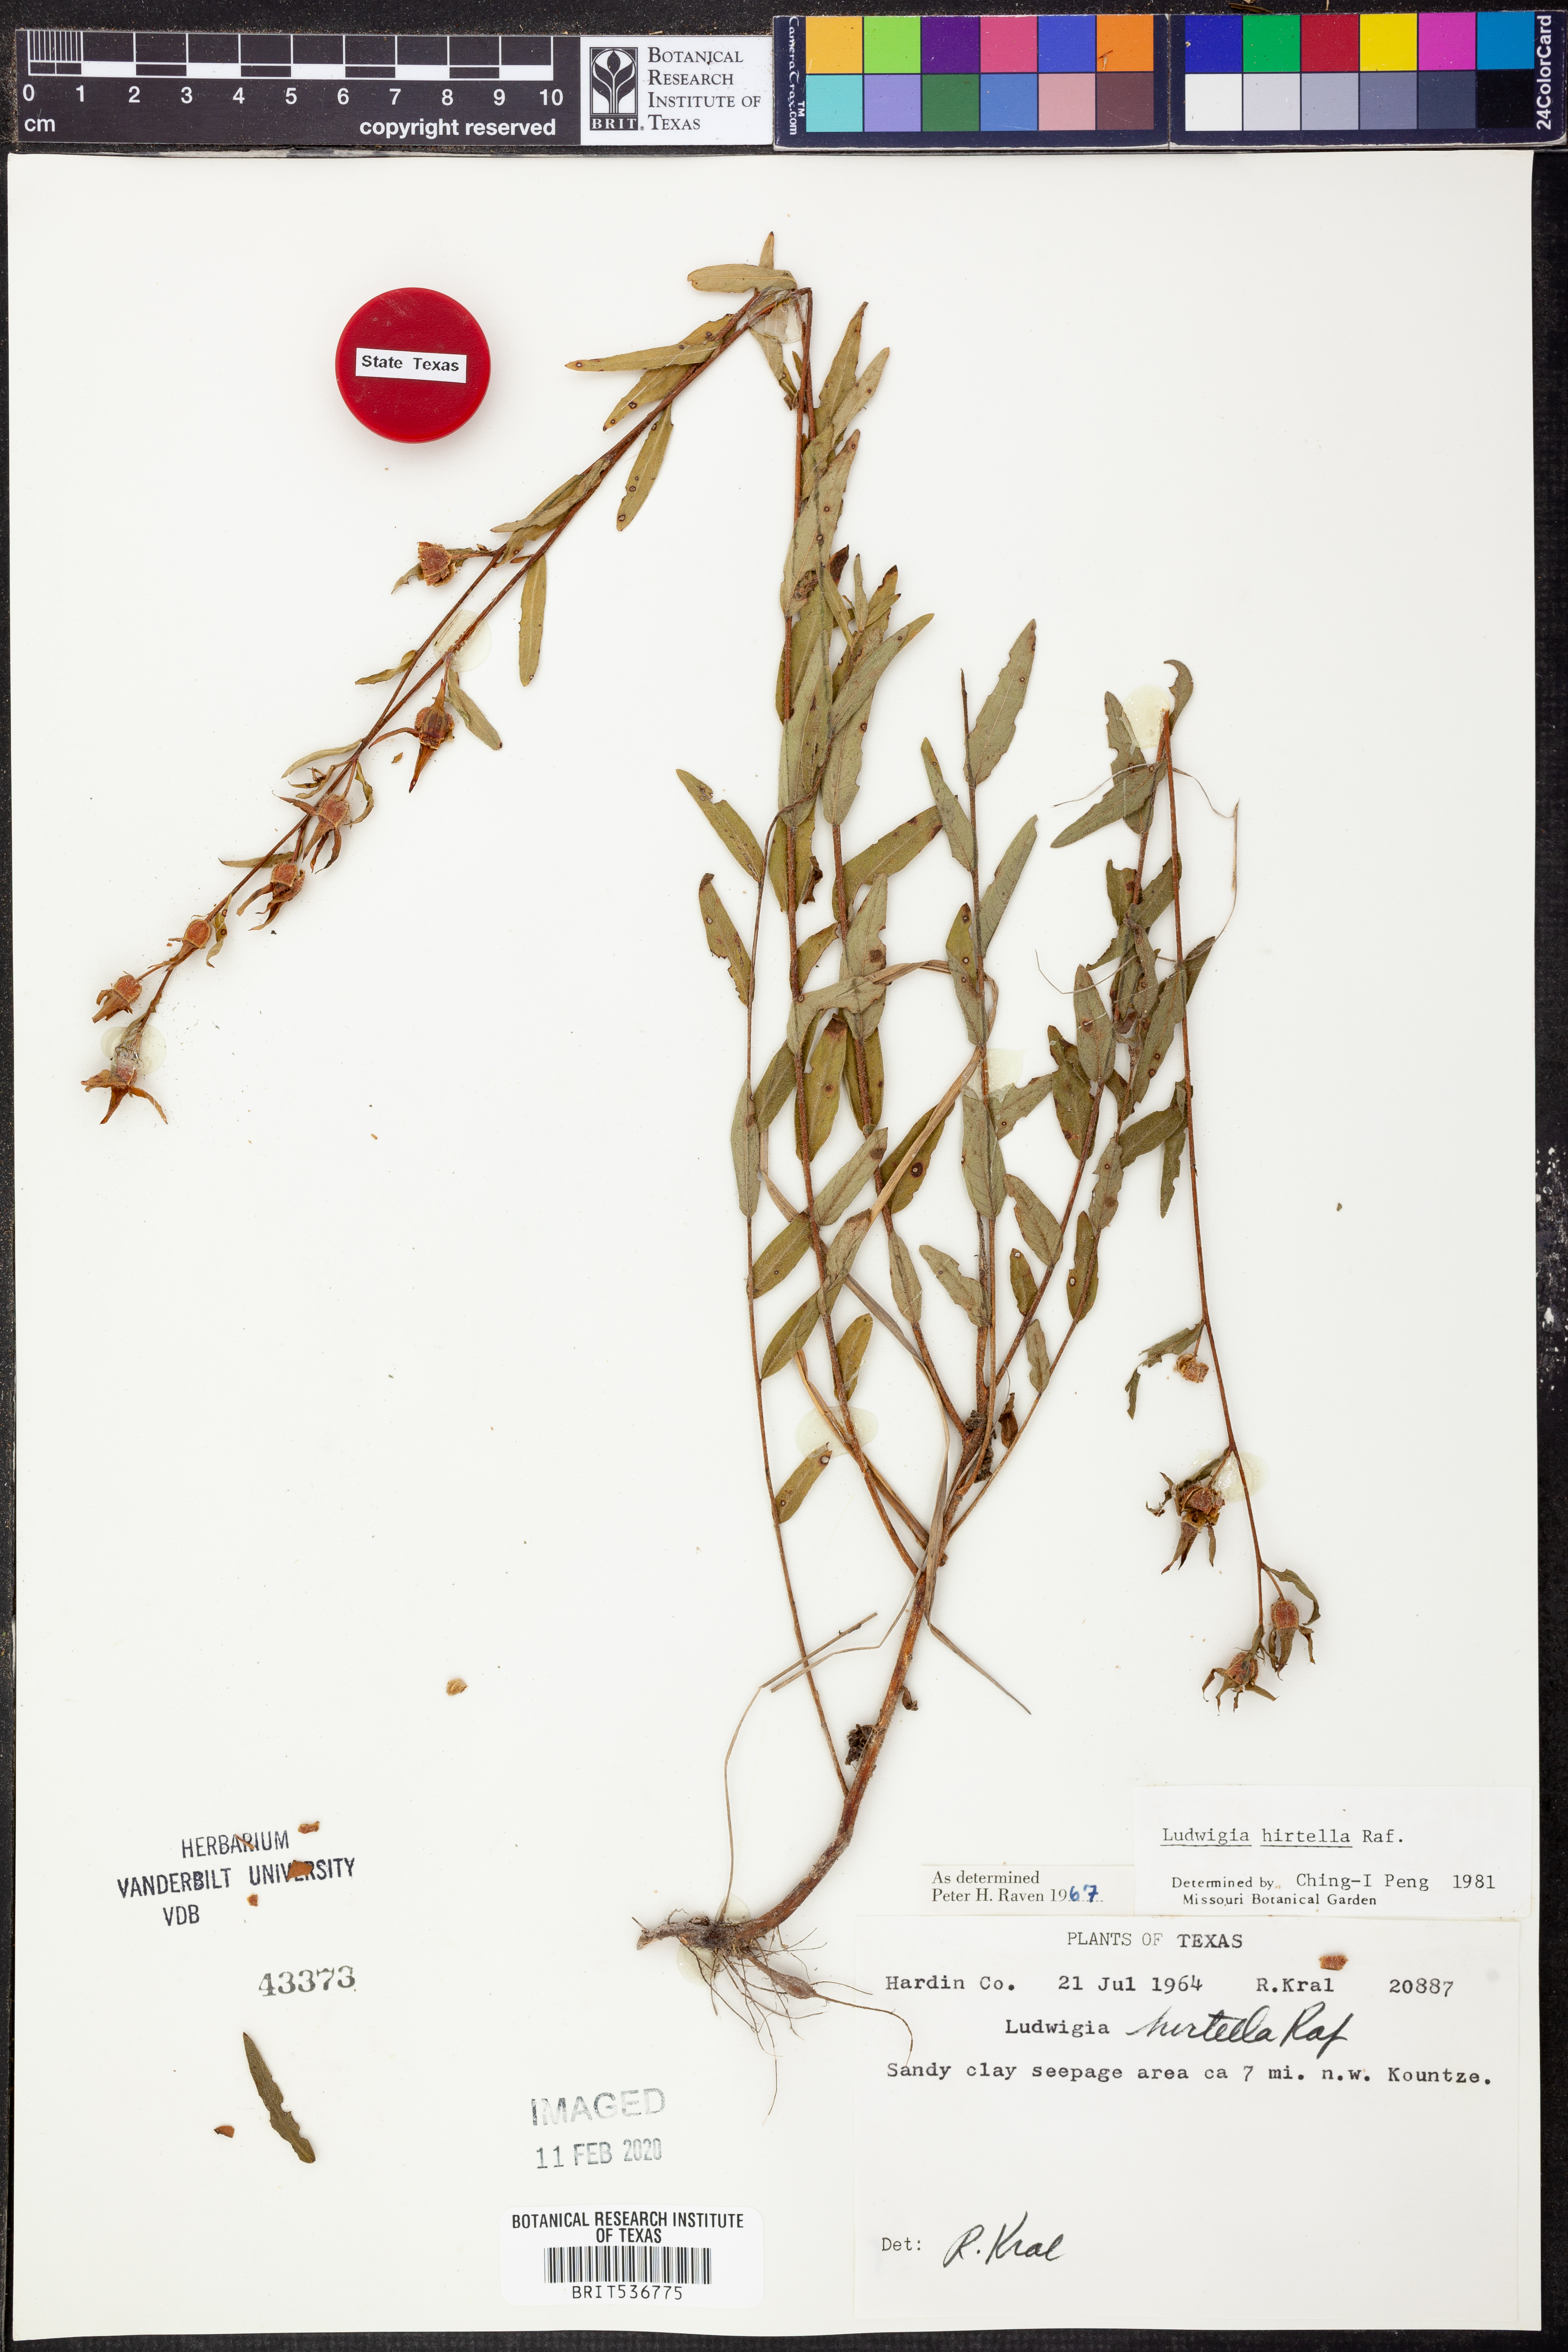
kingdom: Plantae
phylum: Tracheophyta
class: Magnoliopsida
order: Myrtales
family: Onagraceae
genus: Ludwigia
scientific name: Ludwigia hirtella
